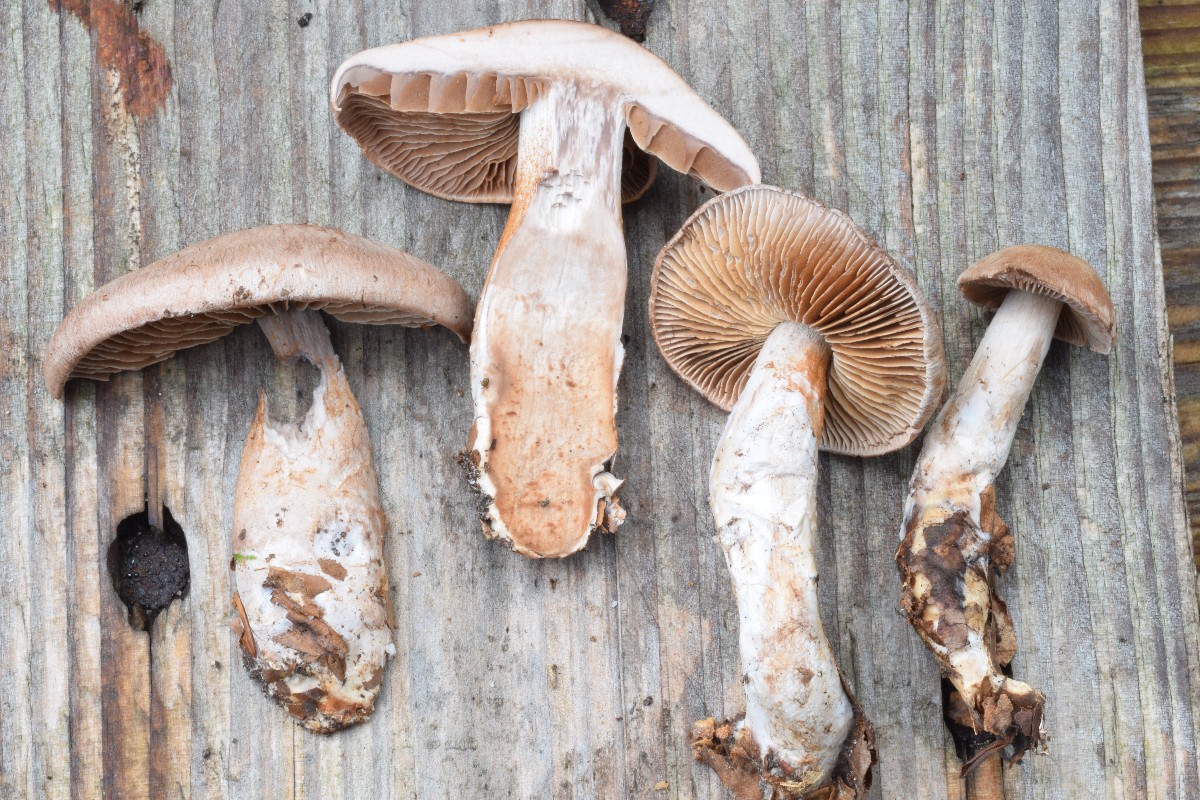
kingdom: Fungi
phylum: Basidiomycota
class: Agaricomycetes
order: Agaricales
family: Cortinariaceae
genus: Cortinarius
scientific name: Cortinarius testaceomicaceus
